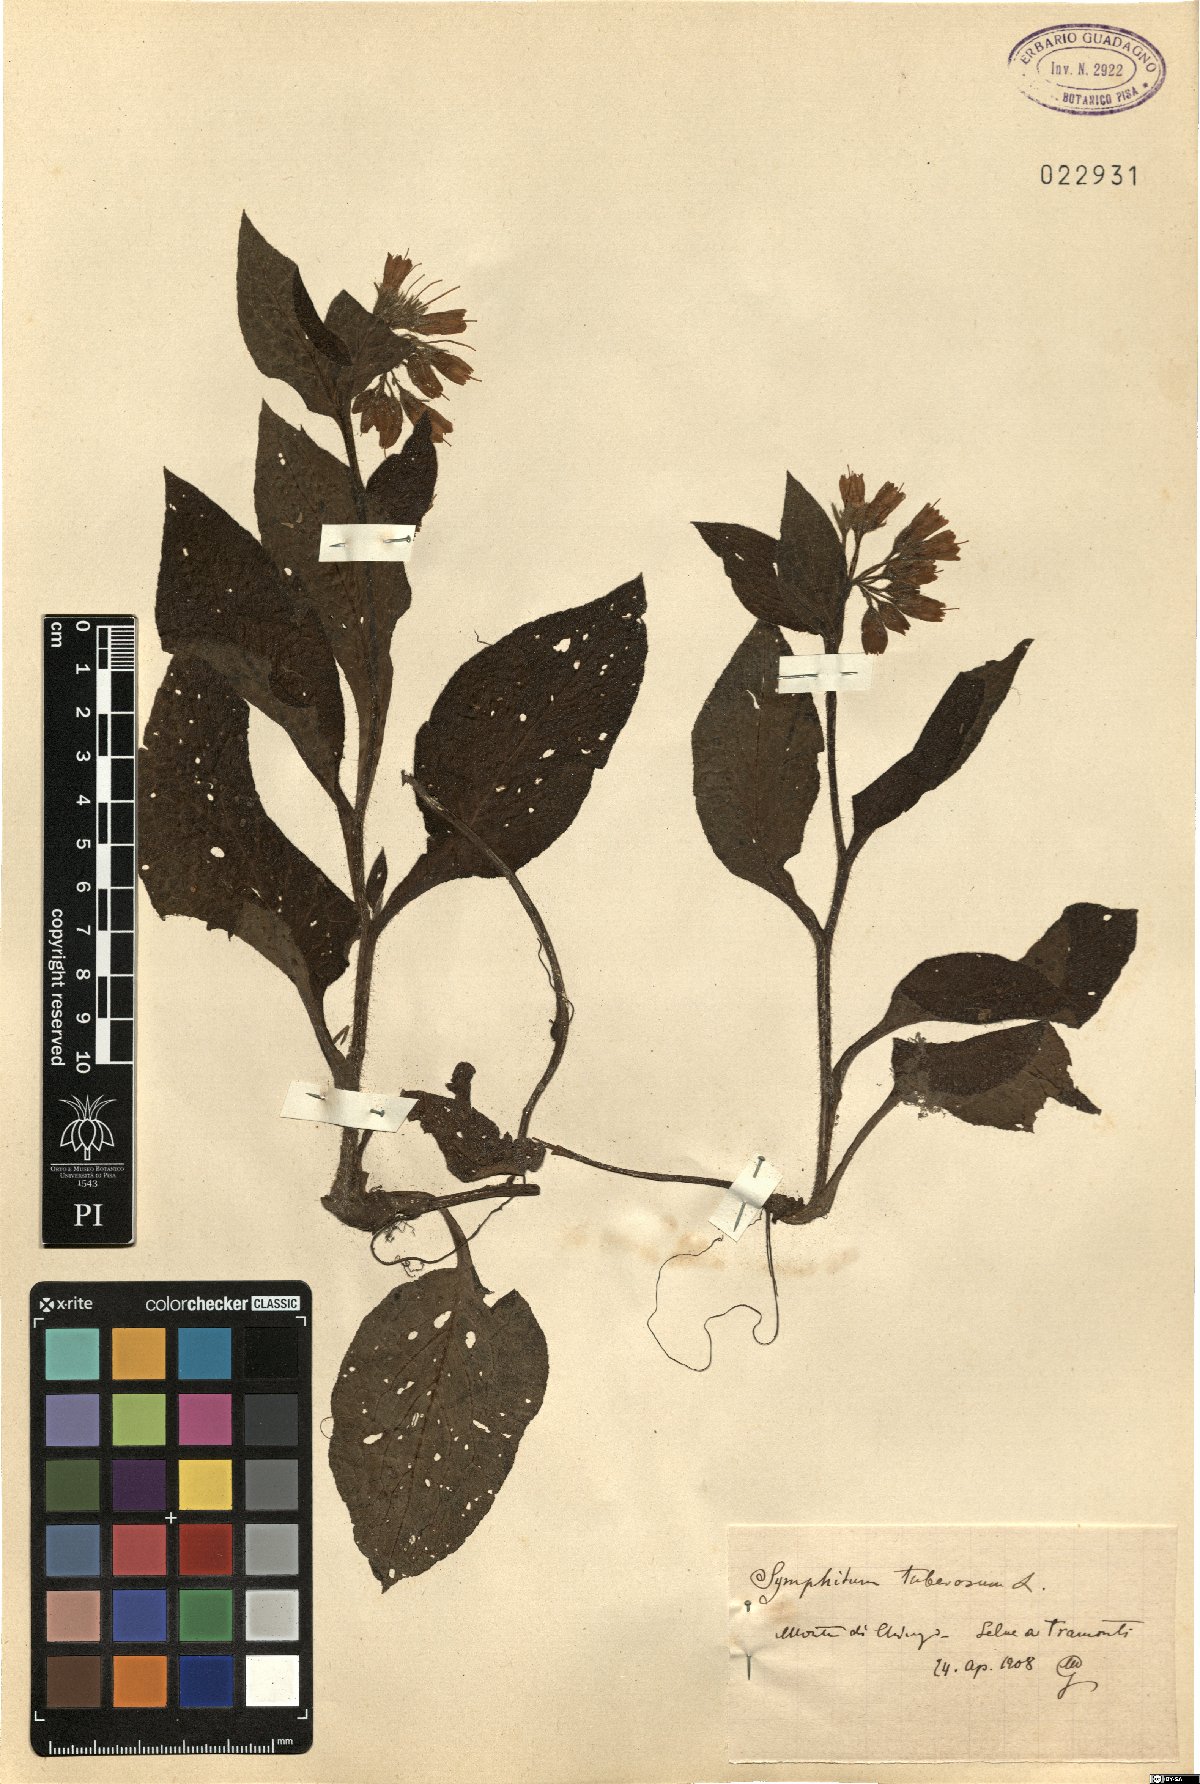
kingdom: Plantae
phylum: Tracheophyta
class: Magnoliopsida
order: Boraginales
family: Boraginaceae
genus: Symphytum
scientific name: Symphytum tuberosum
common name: Tuberous comfrey
